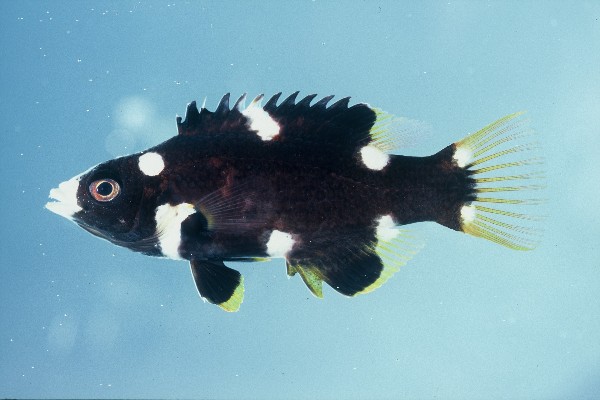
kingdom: Animalia
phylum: Chordata
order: Perciformes
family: Labridae
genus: Bodianus
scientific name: Bodianus axillaris
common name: Axilspot hogfish
